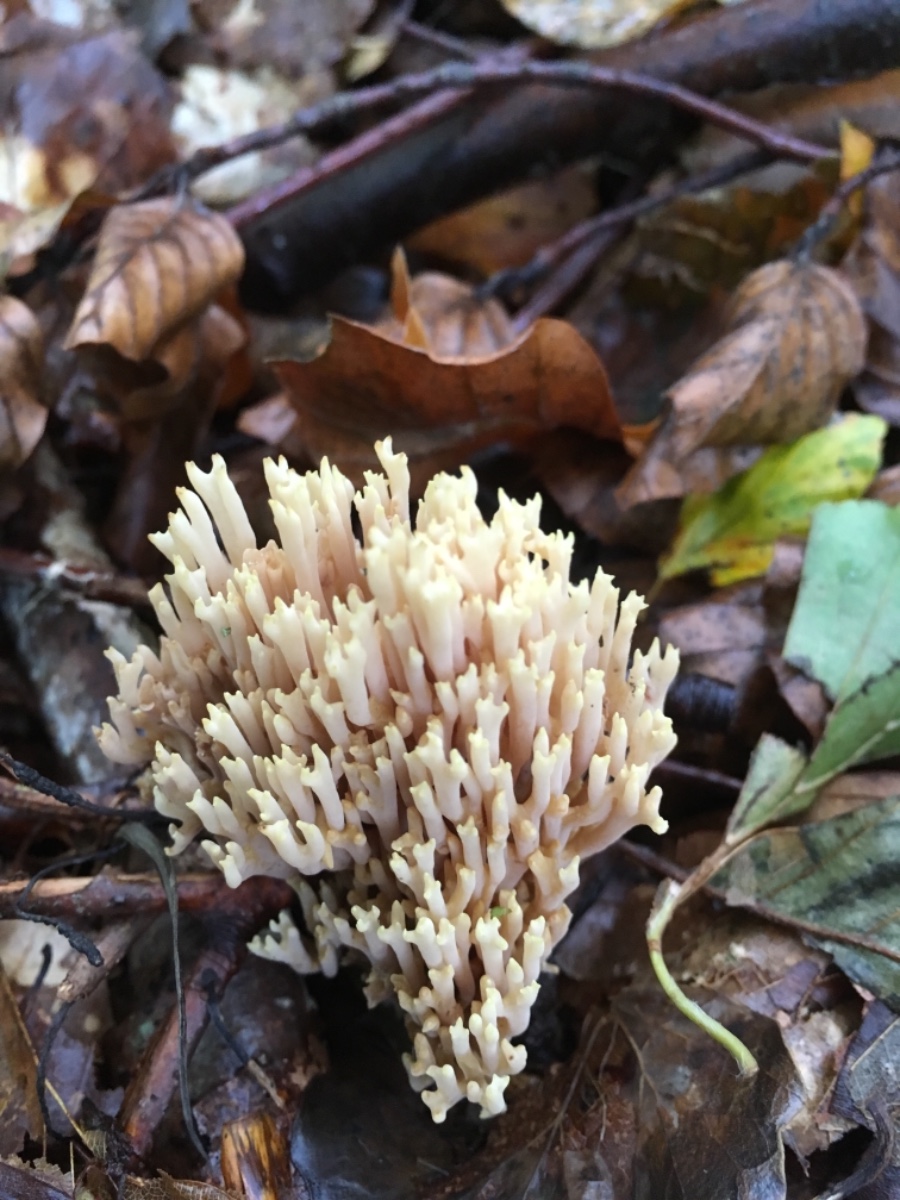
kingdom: Fungi
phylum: Basidiomycota
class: Agaricomycetes
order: Gomphales
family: Gomphaceae
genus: Ramaria
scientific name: Ramaria stricta
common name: rank koralsvamp
